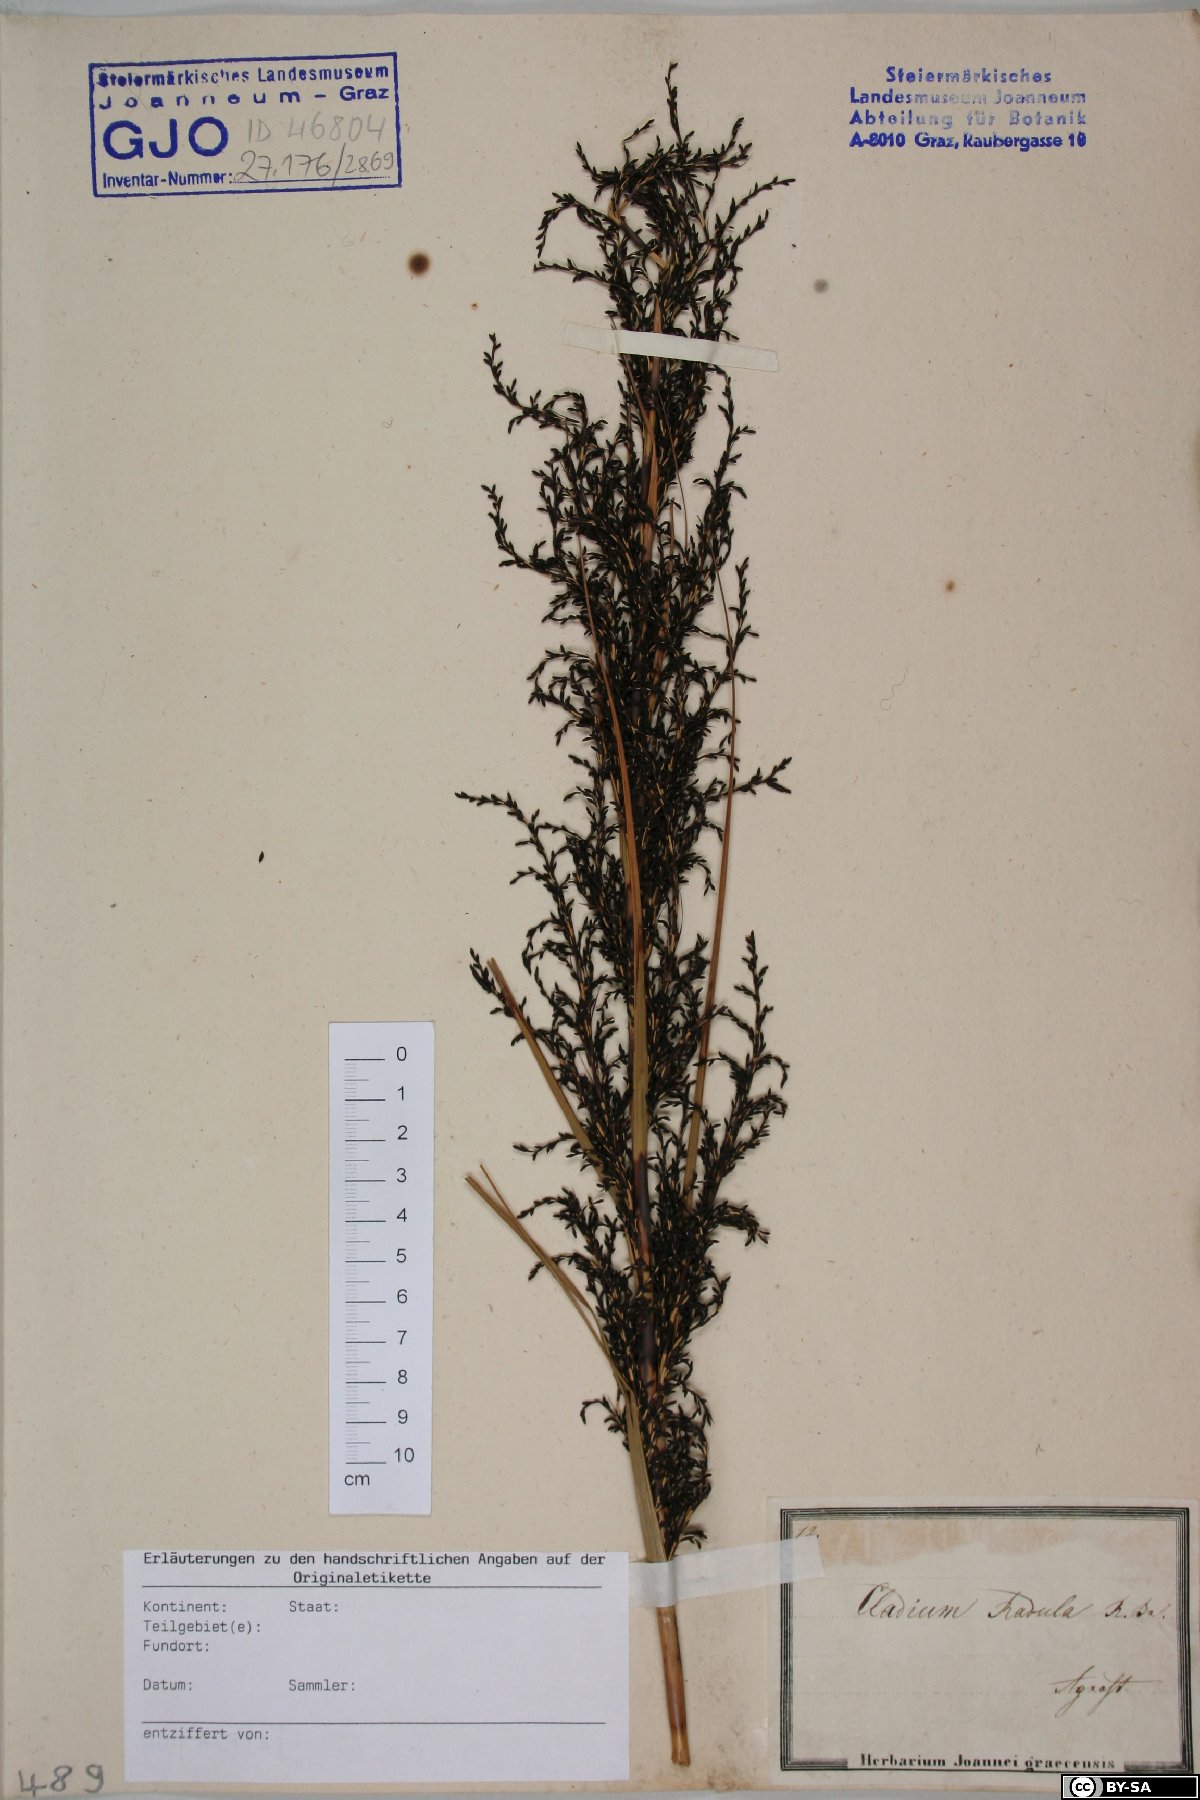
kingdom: Plantae
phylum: Tracheophyta
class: Liliopsida
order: Poales
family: Cyperaceae
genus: Gahnia
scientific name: Gahnia radula
